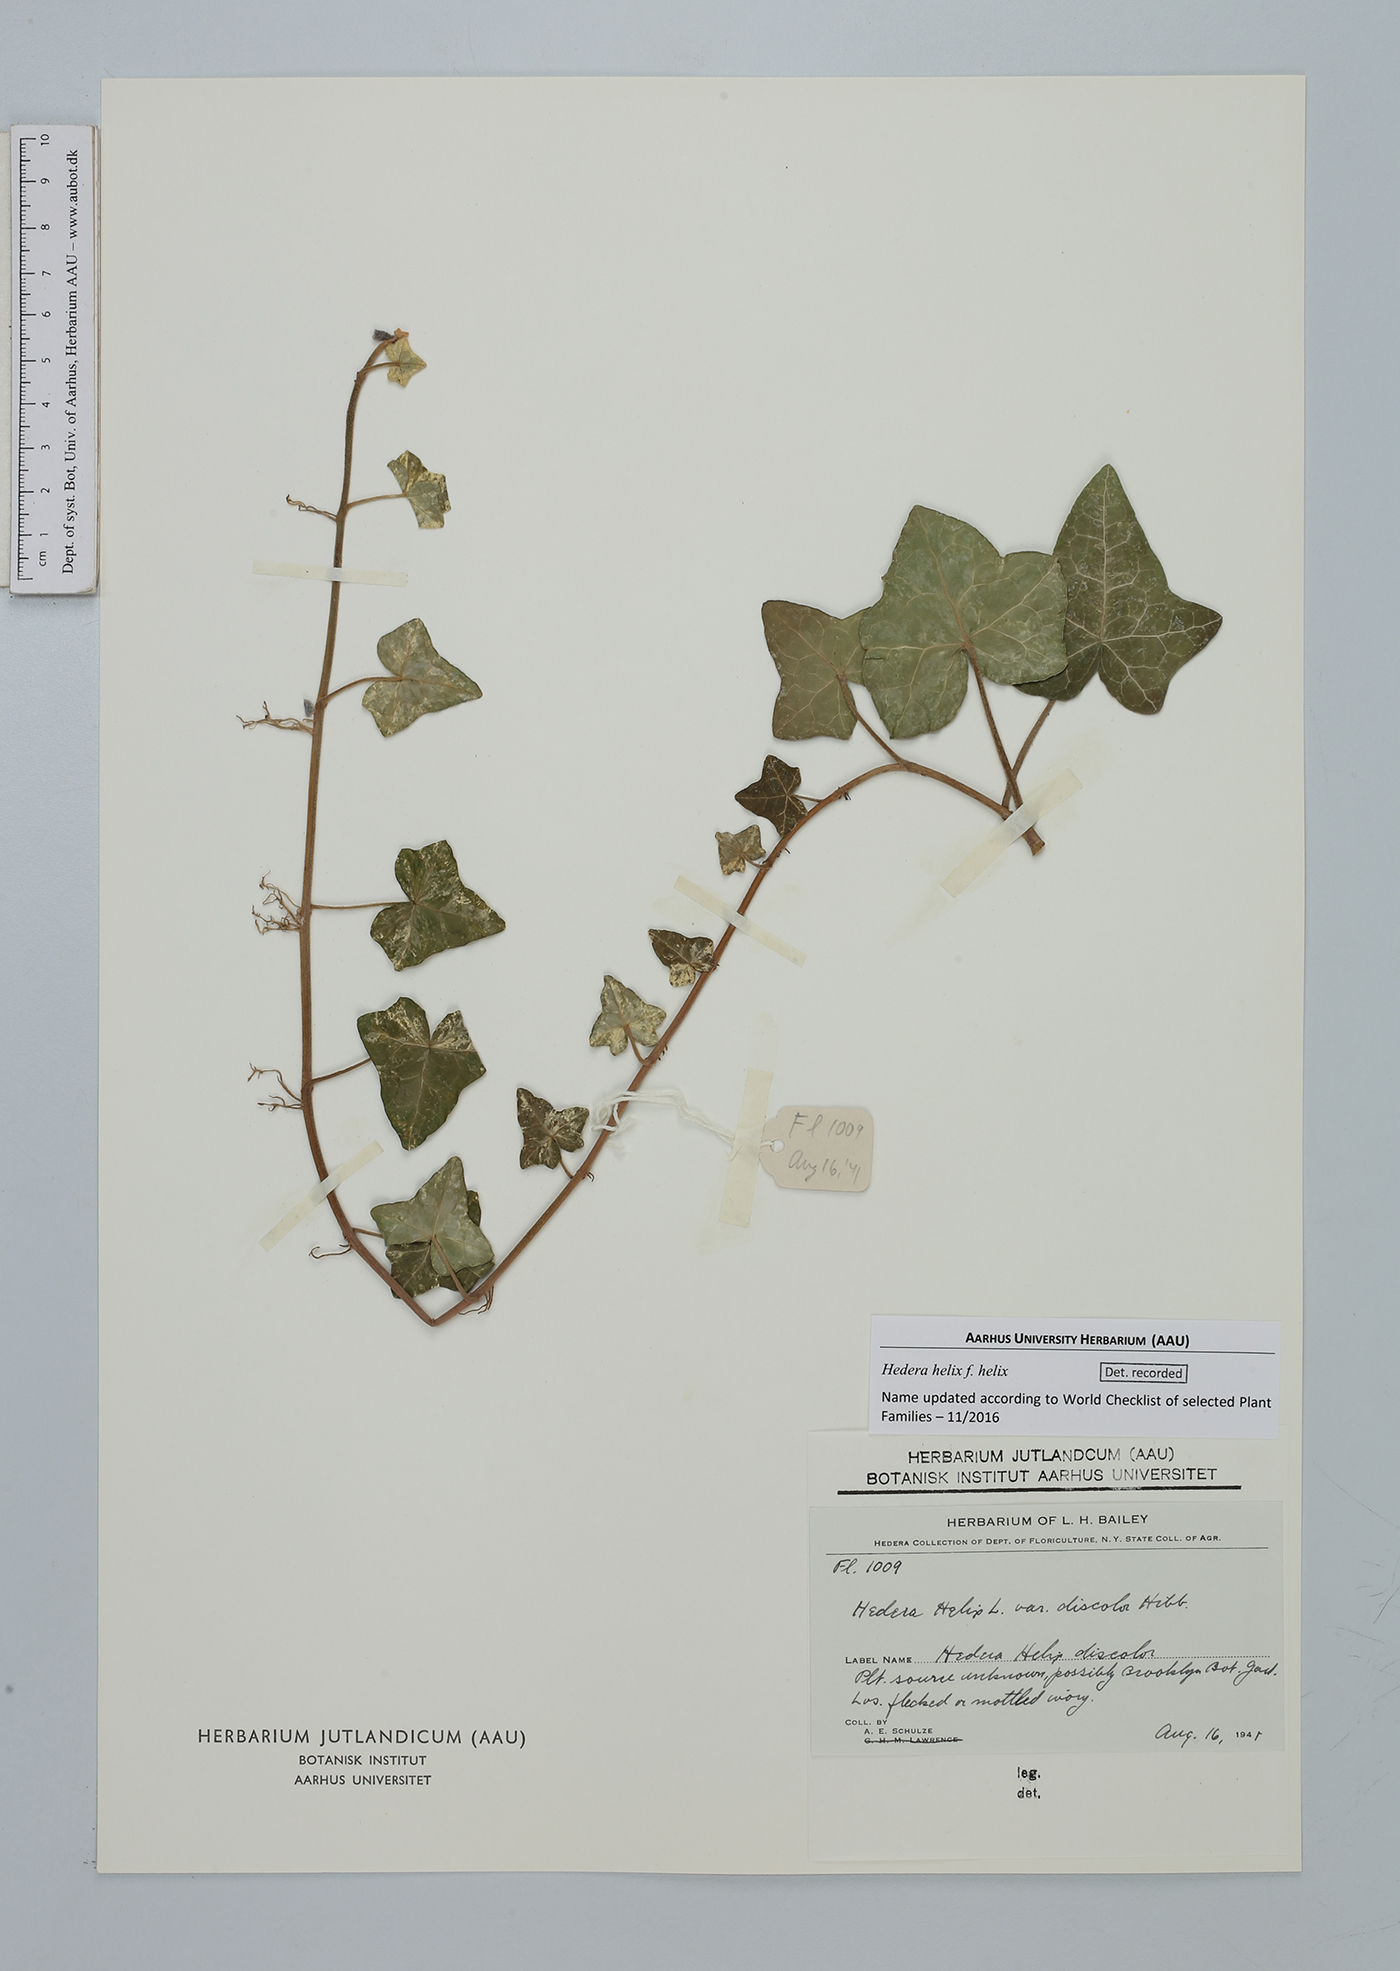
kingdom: Plantae
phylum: Tracheophyta
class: Magnoliopsida
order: Apiales
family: Araliaceae
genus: Hedera
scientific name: Hedera helix
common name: Ivy
